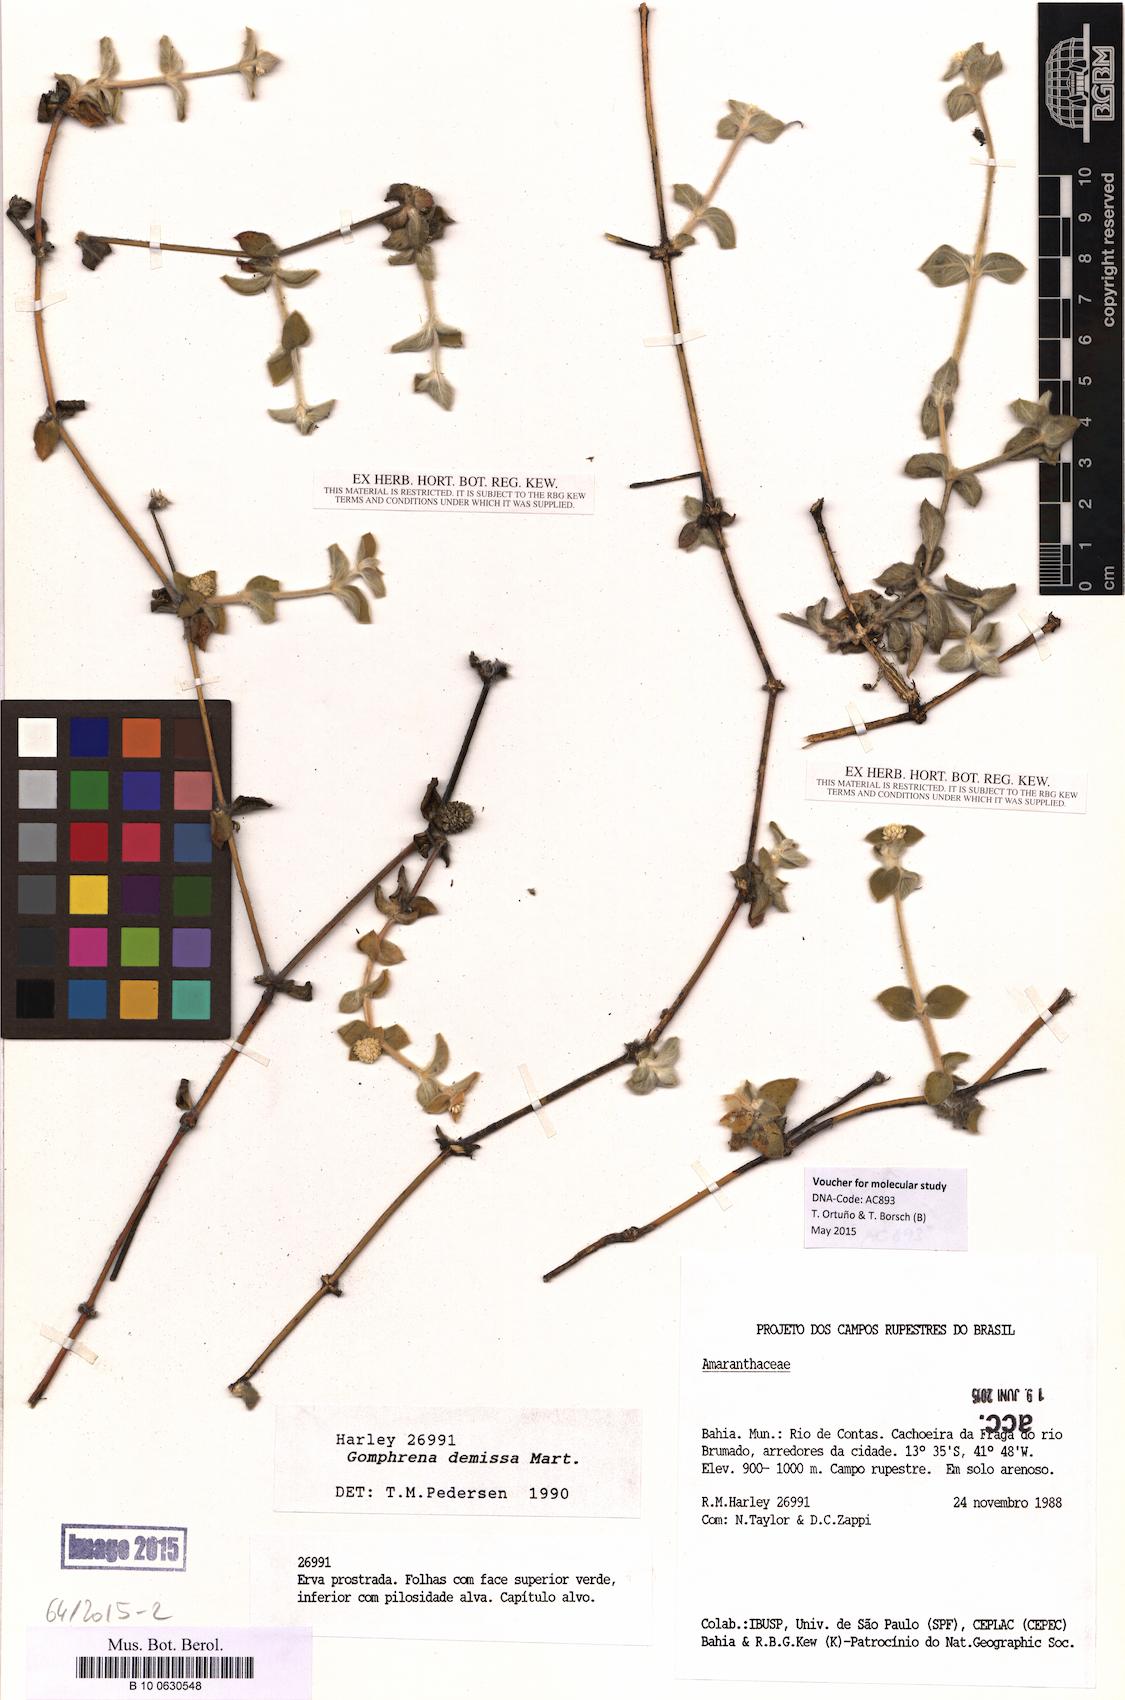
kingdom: Plantae
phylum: Tracheophyta
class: Magnoliopsida
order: Caryophyllales
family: Amaranthaceae
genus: Gomphrena
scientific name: Gomphrena demissa
